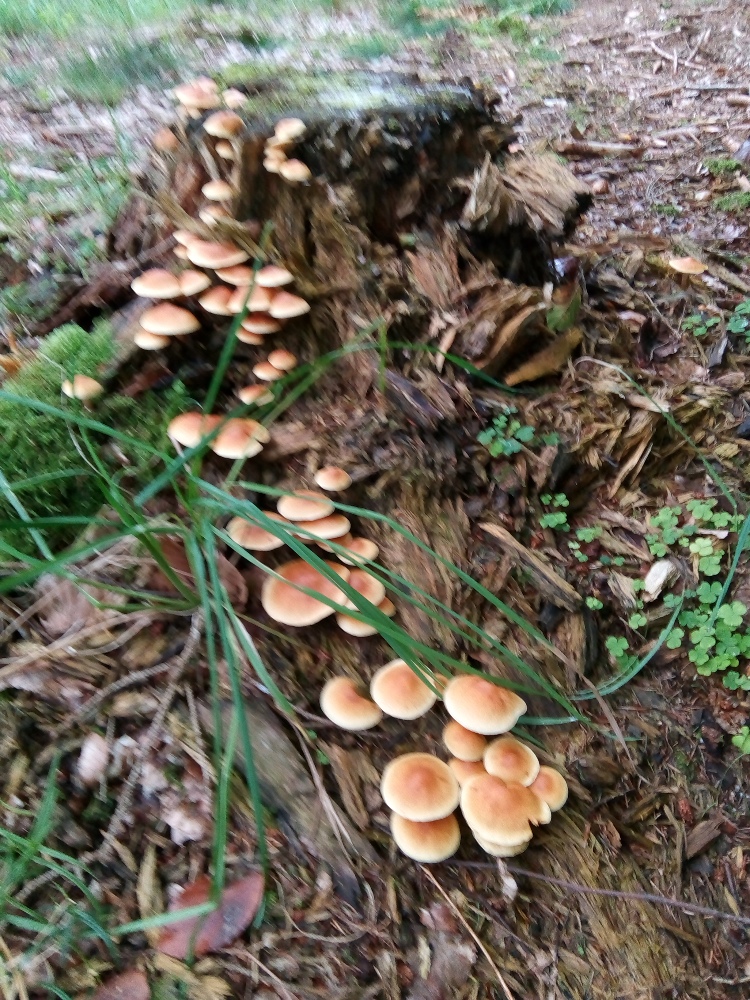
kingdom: Fungi
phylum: Basidiomycota
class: Agaricomycetes
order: Agaricales
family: Hymenogastraceae
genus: Gymnopilus
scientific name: Gymnopilus penetrans
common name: plettet flammehat
